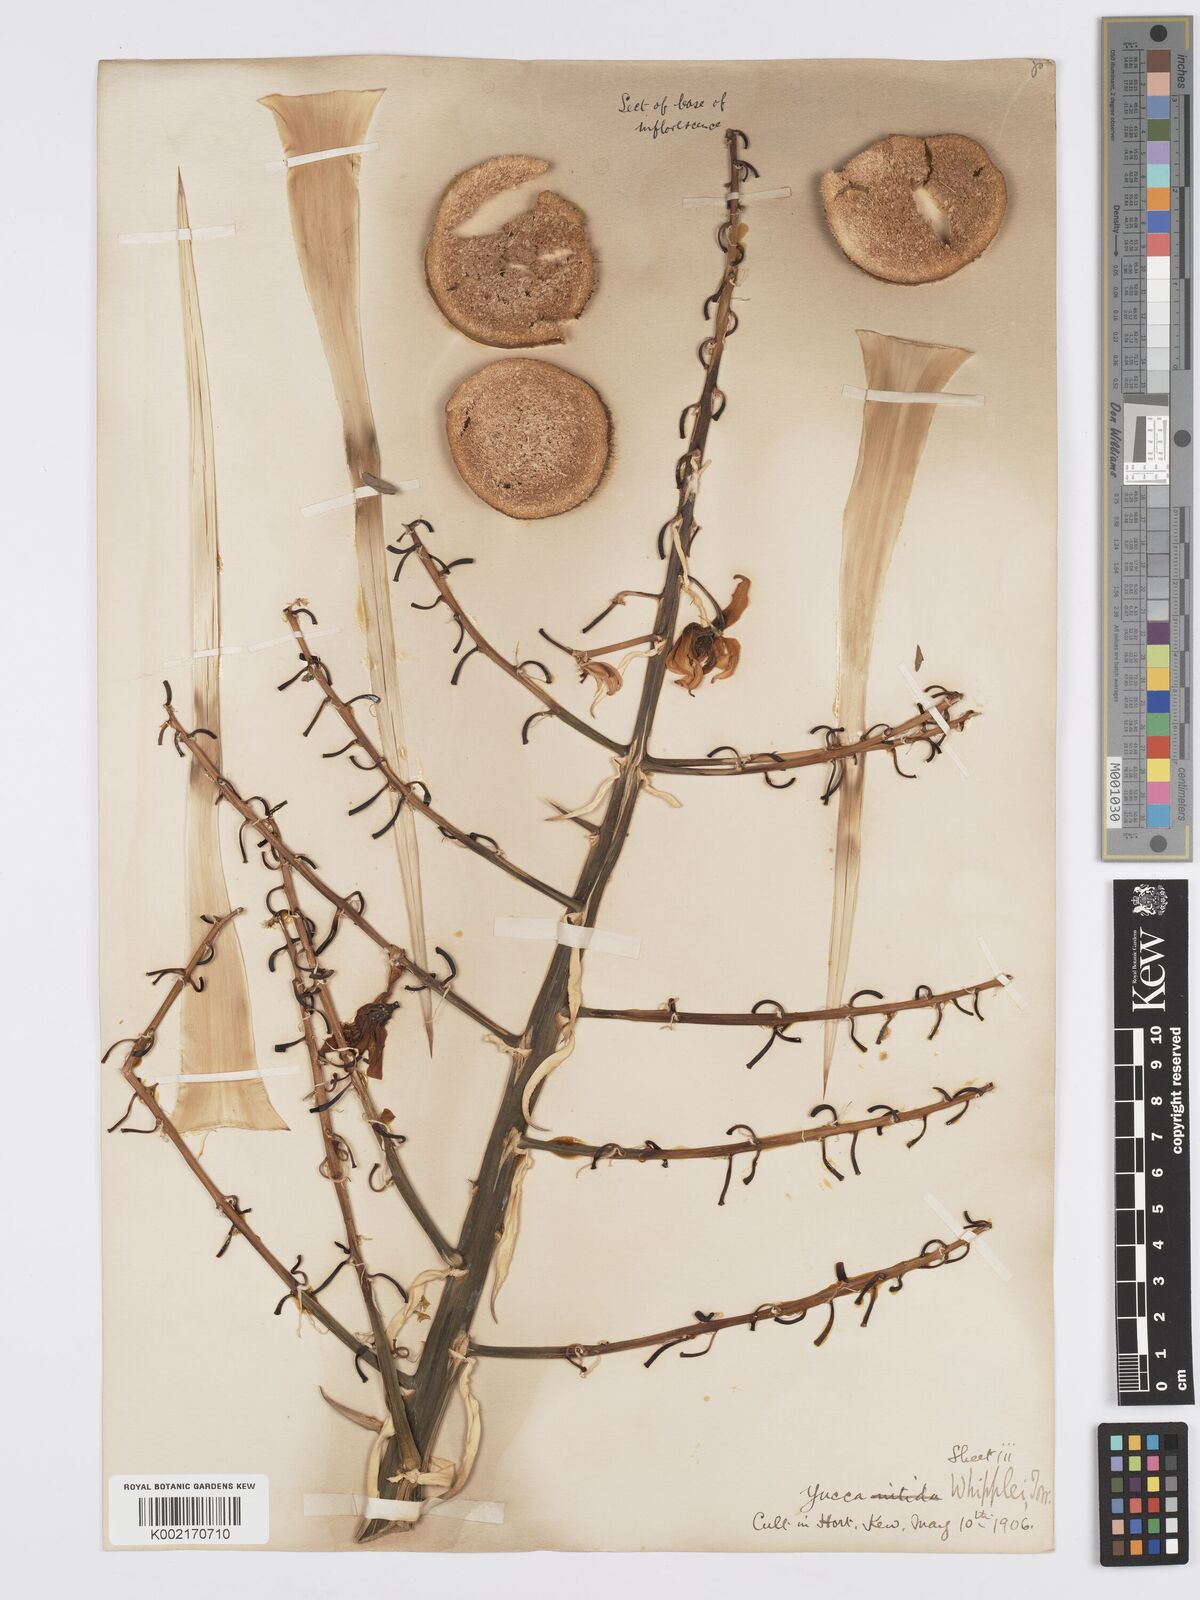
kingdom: Plantae
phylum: Tracheophyta
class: Liliopsida
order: Asparagales
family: Asparagaceae
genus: Hesperoyucca
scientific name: Hesperoyucca whipplei
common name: Our lord's-candle
